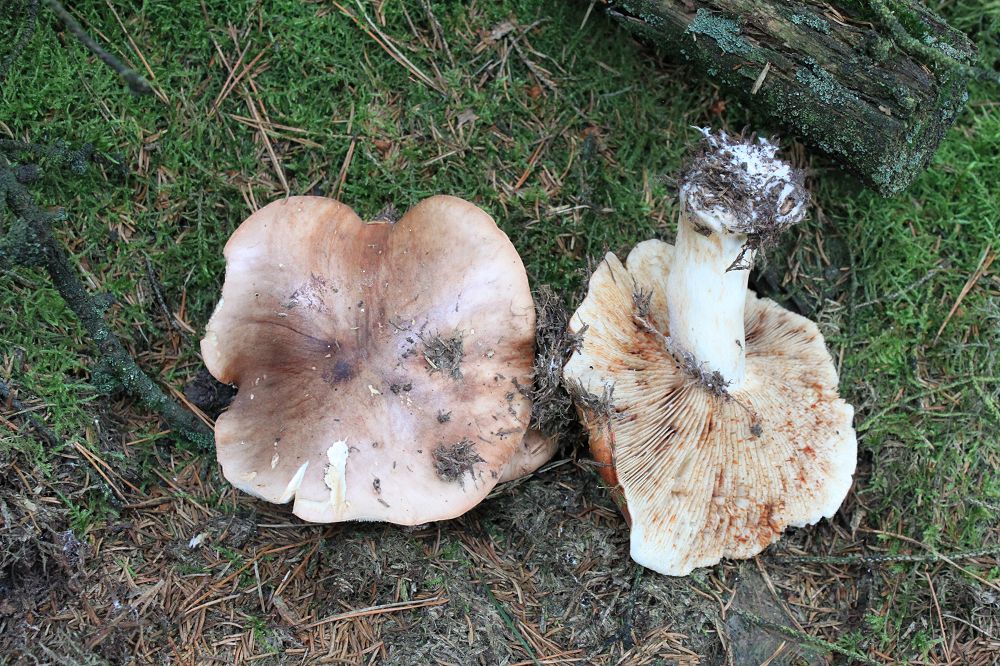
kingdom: Fungi
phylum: Basidiomycota
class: Agaricomycetes
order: Agaricales
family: Tricholomataceae
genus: Tricholoma
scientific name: Tricholoma stans
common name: stolt ridderhat
